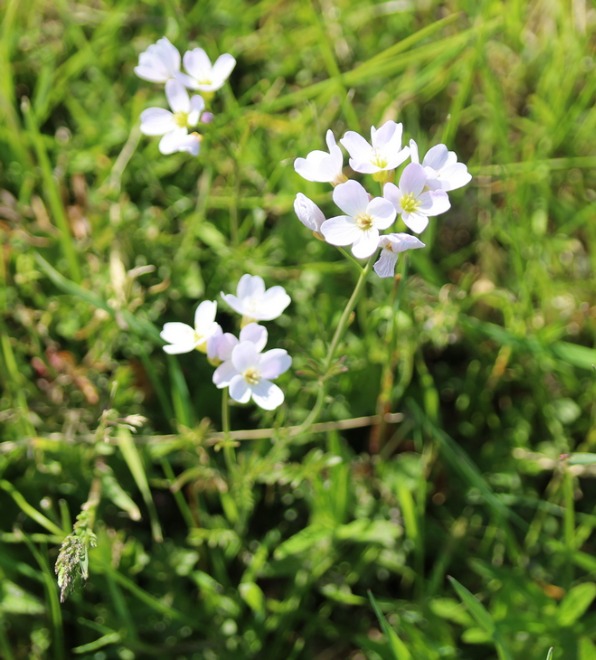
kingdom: Plantae
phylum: Tracheophyta
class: Magnoliopsida
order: Brassicales
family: Brassicaceae
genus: Cardamine
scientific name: Cardamine pratensis
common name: Engkarse
